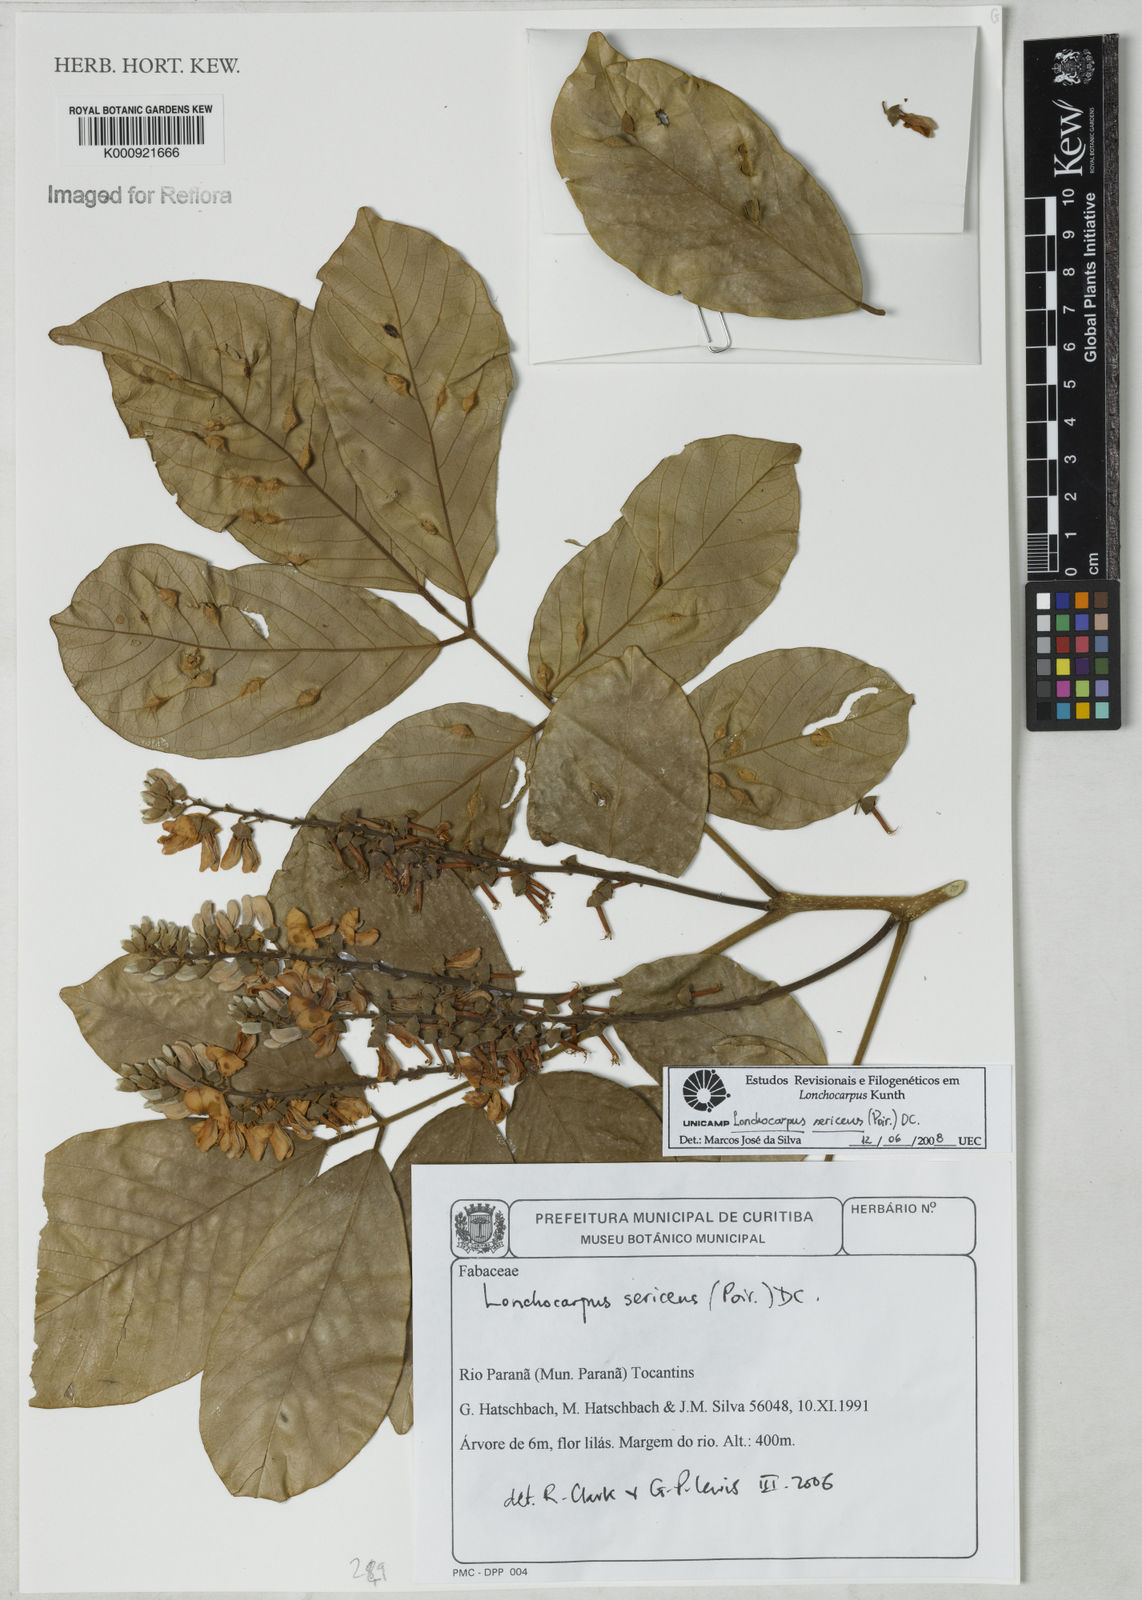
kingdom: Plantae
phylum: Tracheophyta
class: Magnoliopsida
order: Fabales
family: Fabaceae
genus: Lonchocarpus
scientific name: Lonchocarpus sericeus
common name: Savonette
